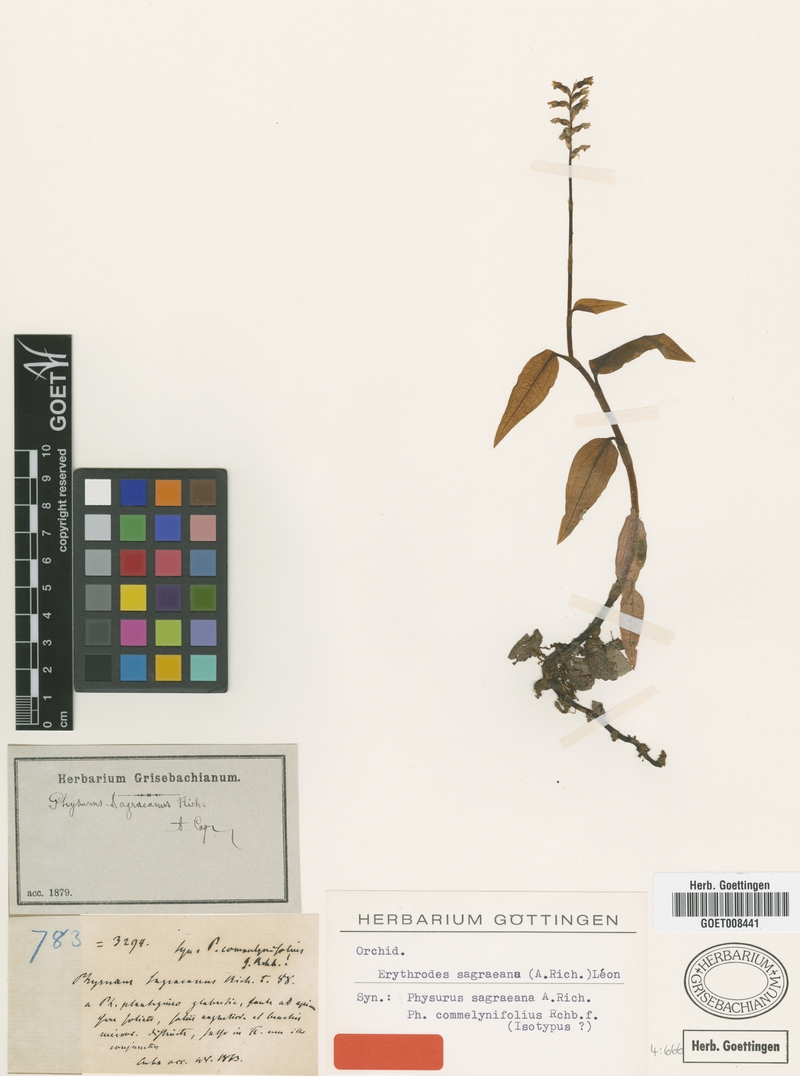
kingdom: Plantae
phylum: Tracheophyta
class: Liliopsida
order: Asparagales
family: Orchidaceae
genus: Aspidogyne
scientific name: Aspidogyne querceticola
